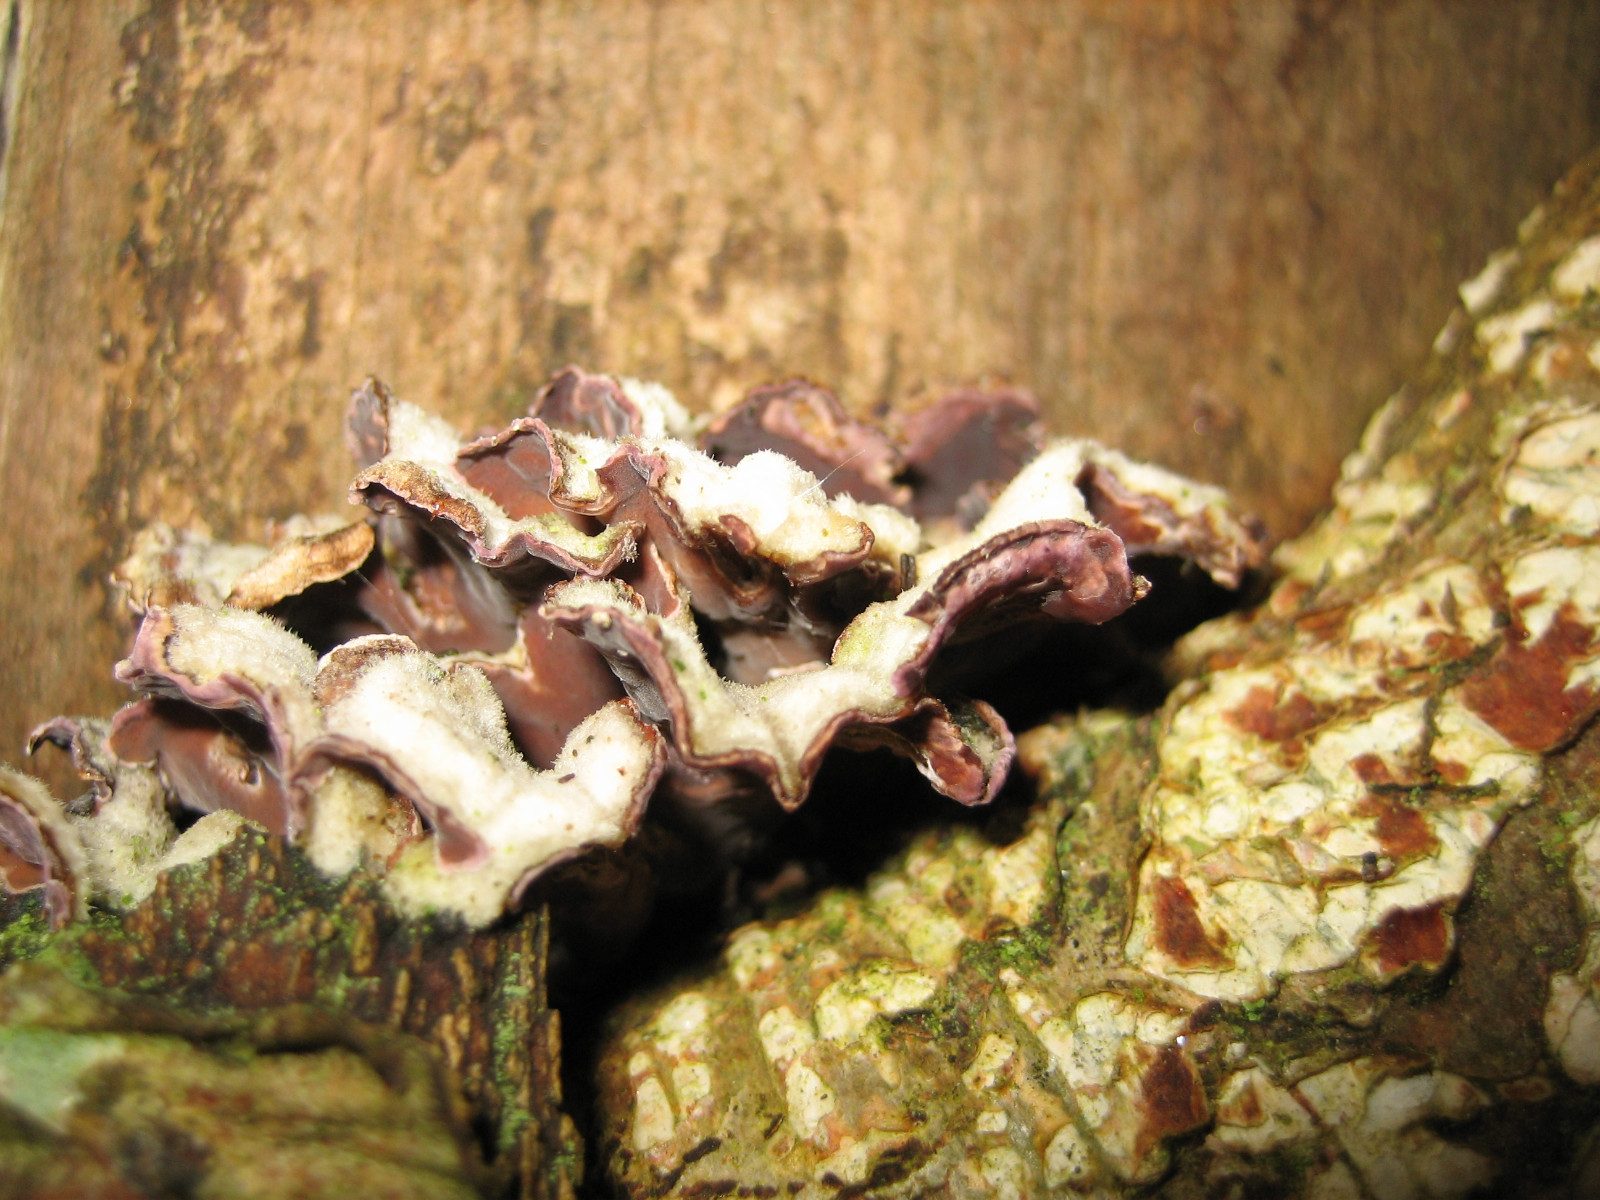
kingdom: Fungi
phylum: Basidiomycota
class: Agaricomycetes
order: Agaricales
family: Cyphellaceae
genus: Chondrostereum
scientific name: Chondrostereum purpureum
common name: purpurlædersvamp
